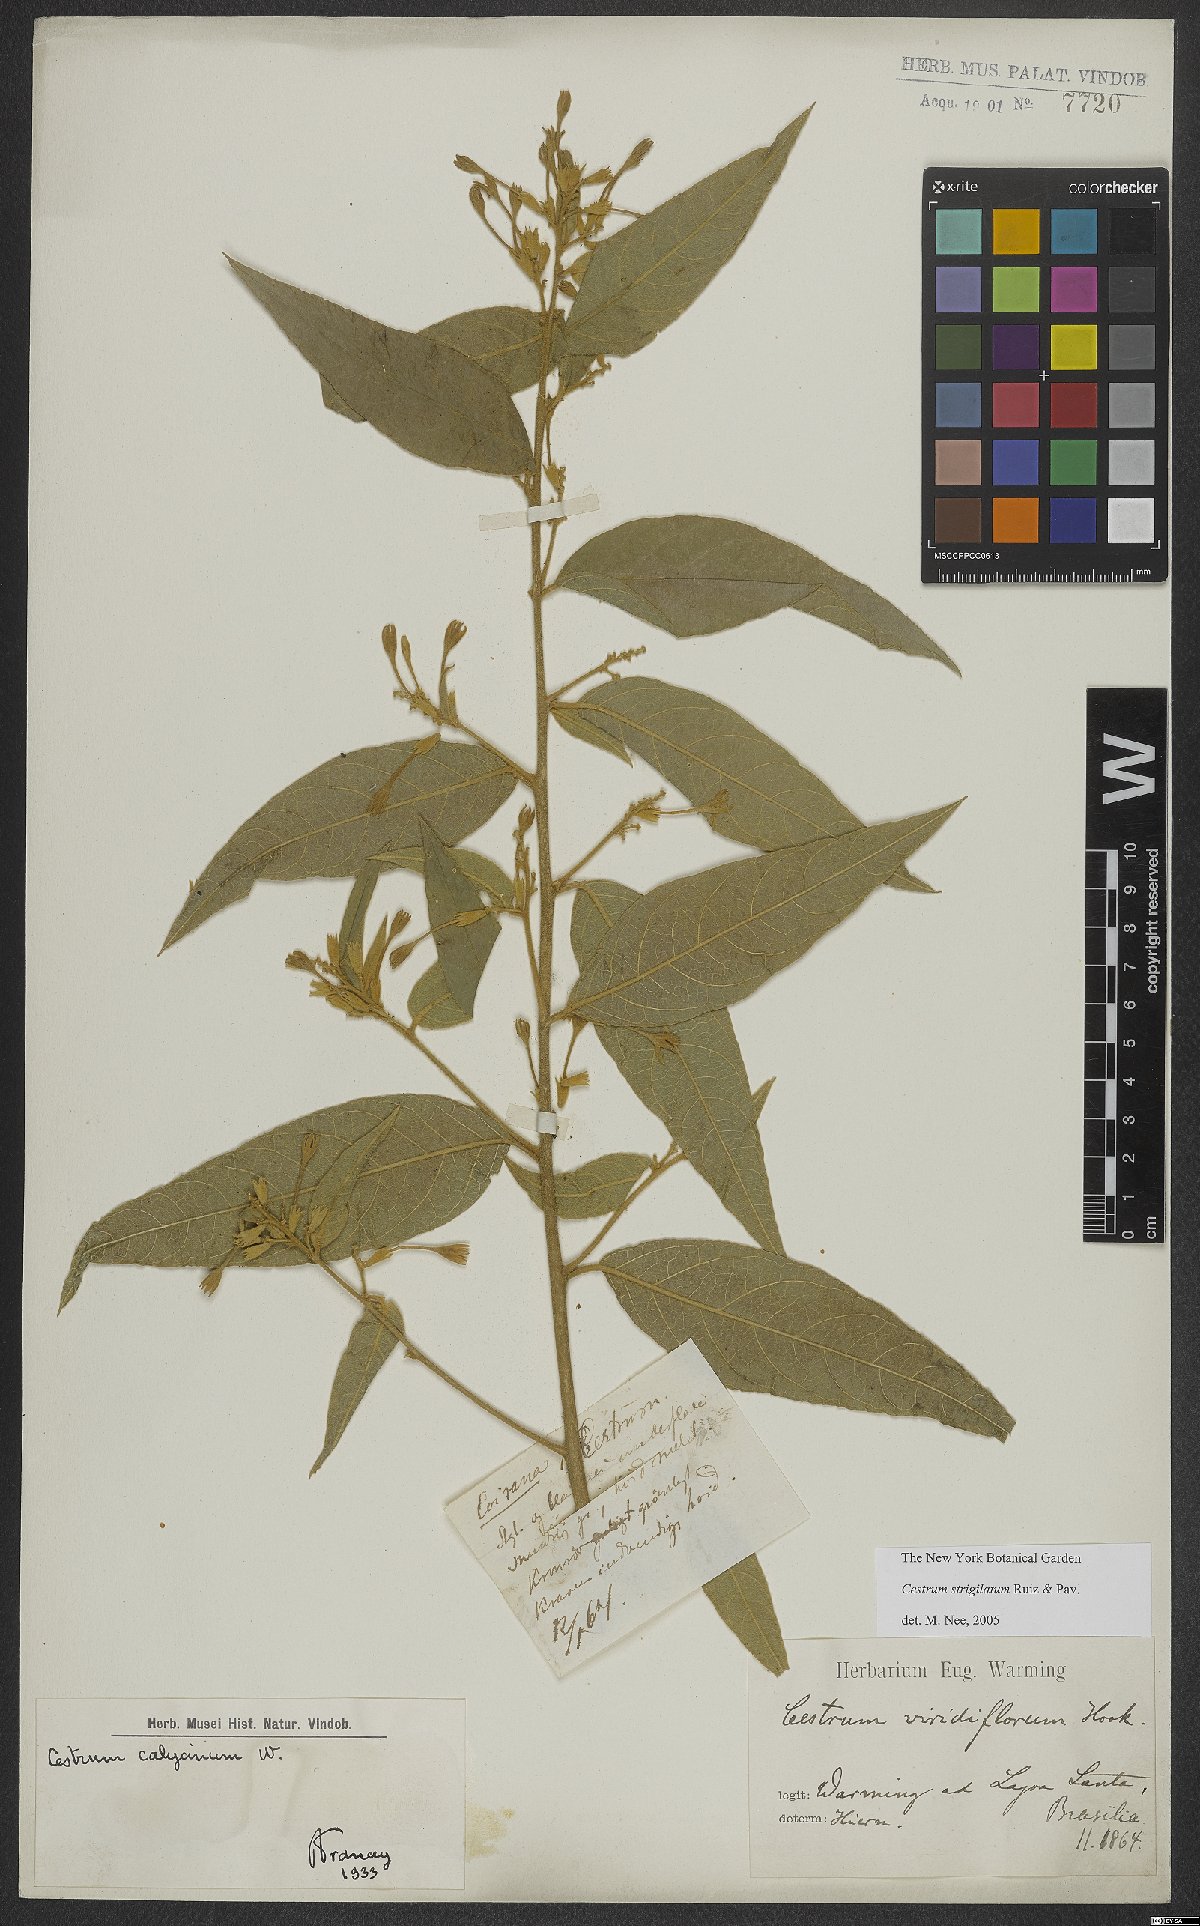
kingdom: Plantae
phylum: Tracheophyta
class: Magnoliopsida
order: Solanales
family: Solanaceae
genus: Cestrum
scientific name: Cestrum strigillatum
